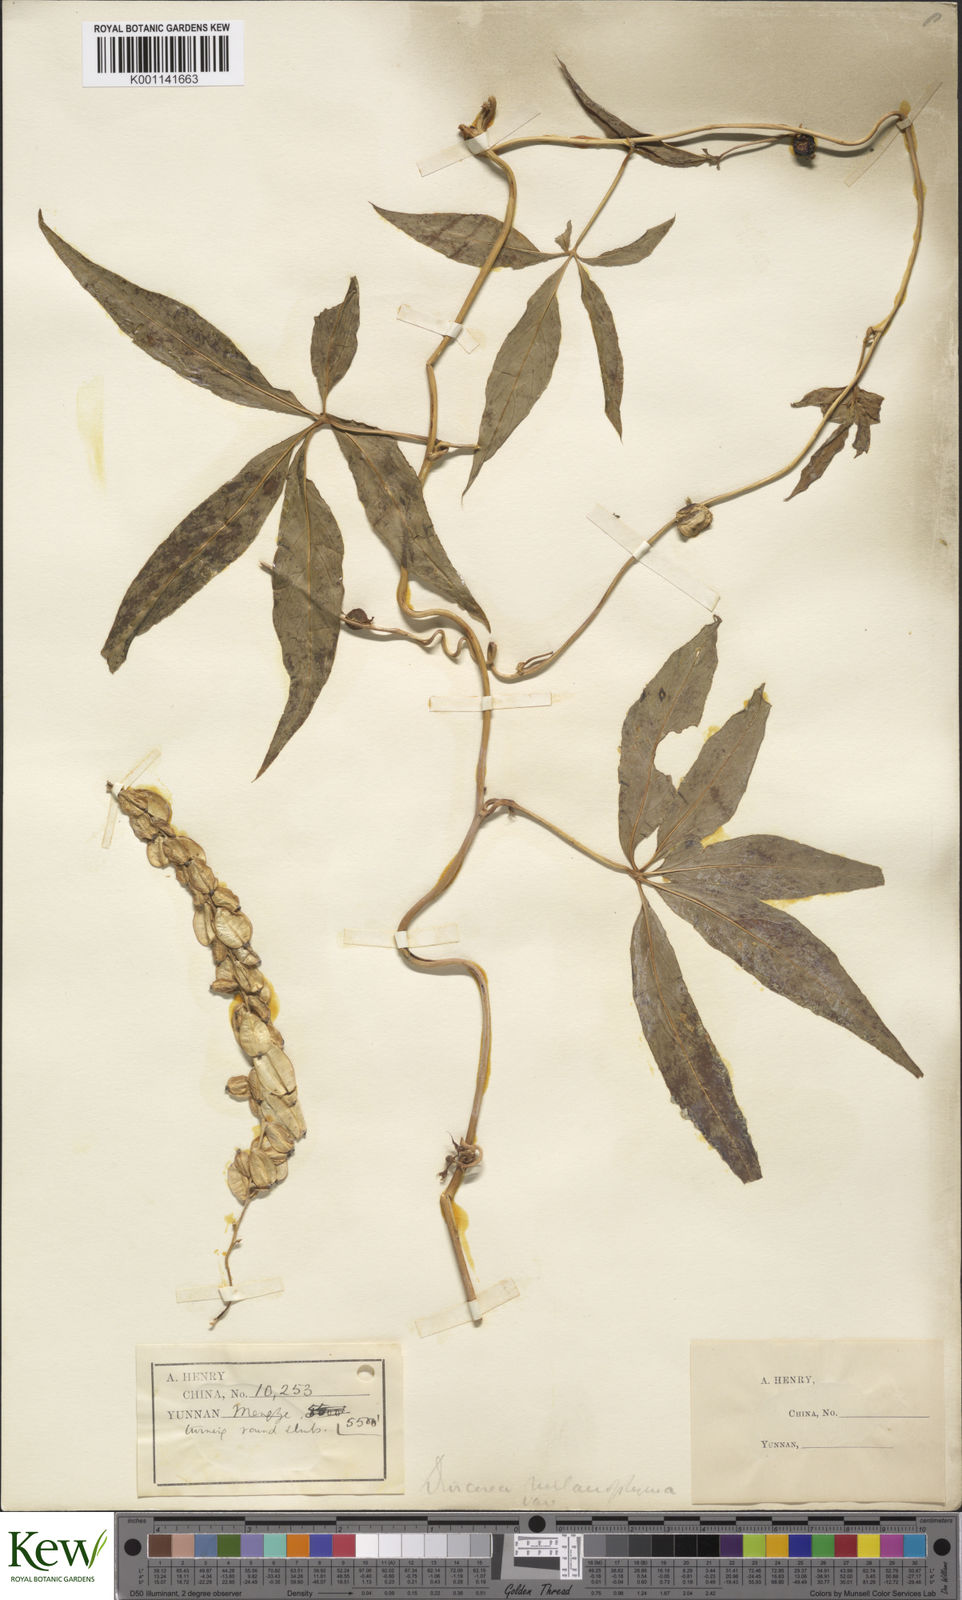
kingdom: Plantae
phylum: Tracheophyta
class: Liliopsida
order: Dioscoreales
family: Dioscoreaceae
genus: Dioscorea
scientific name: Dioscorea melanophyma
